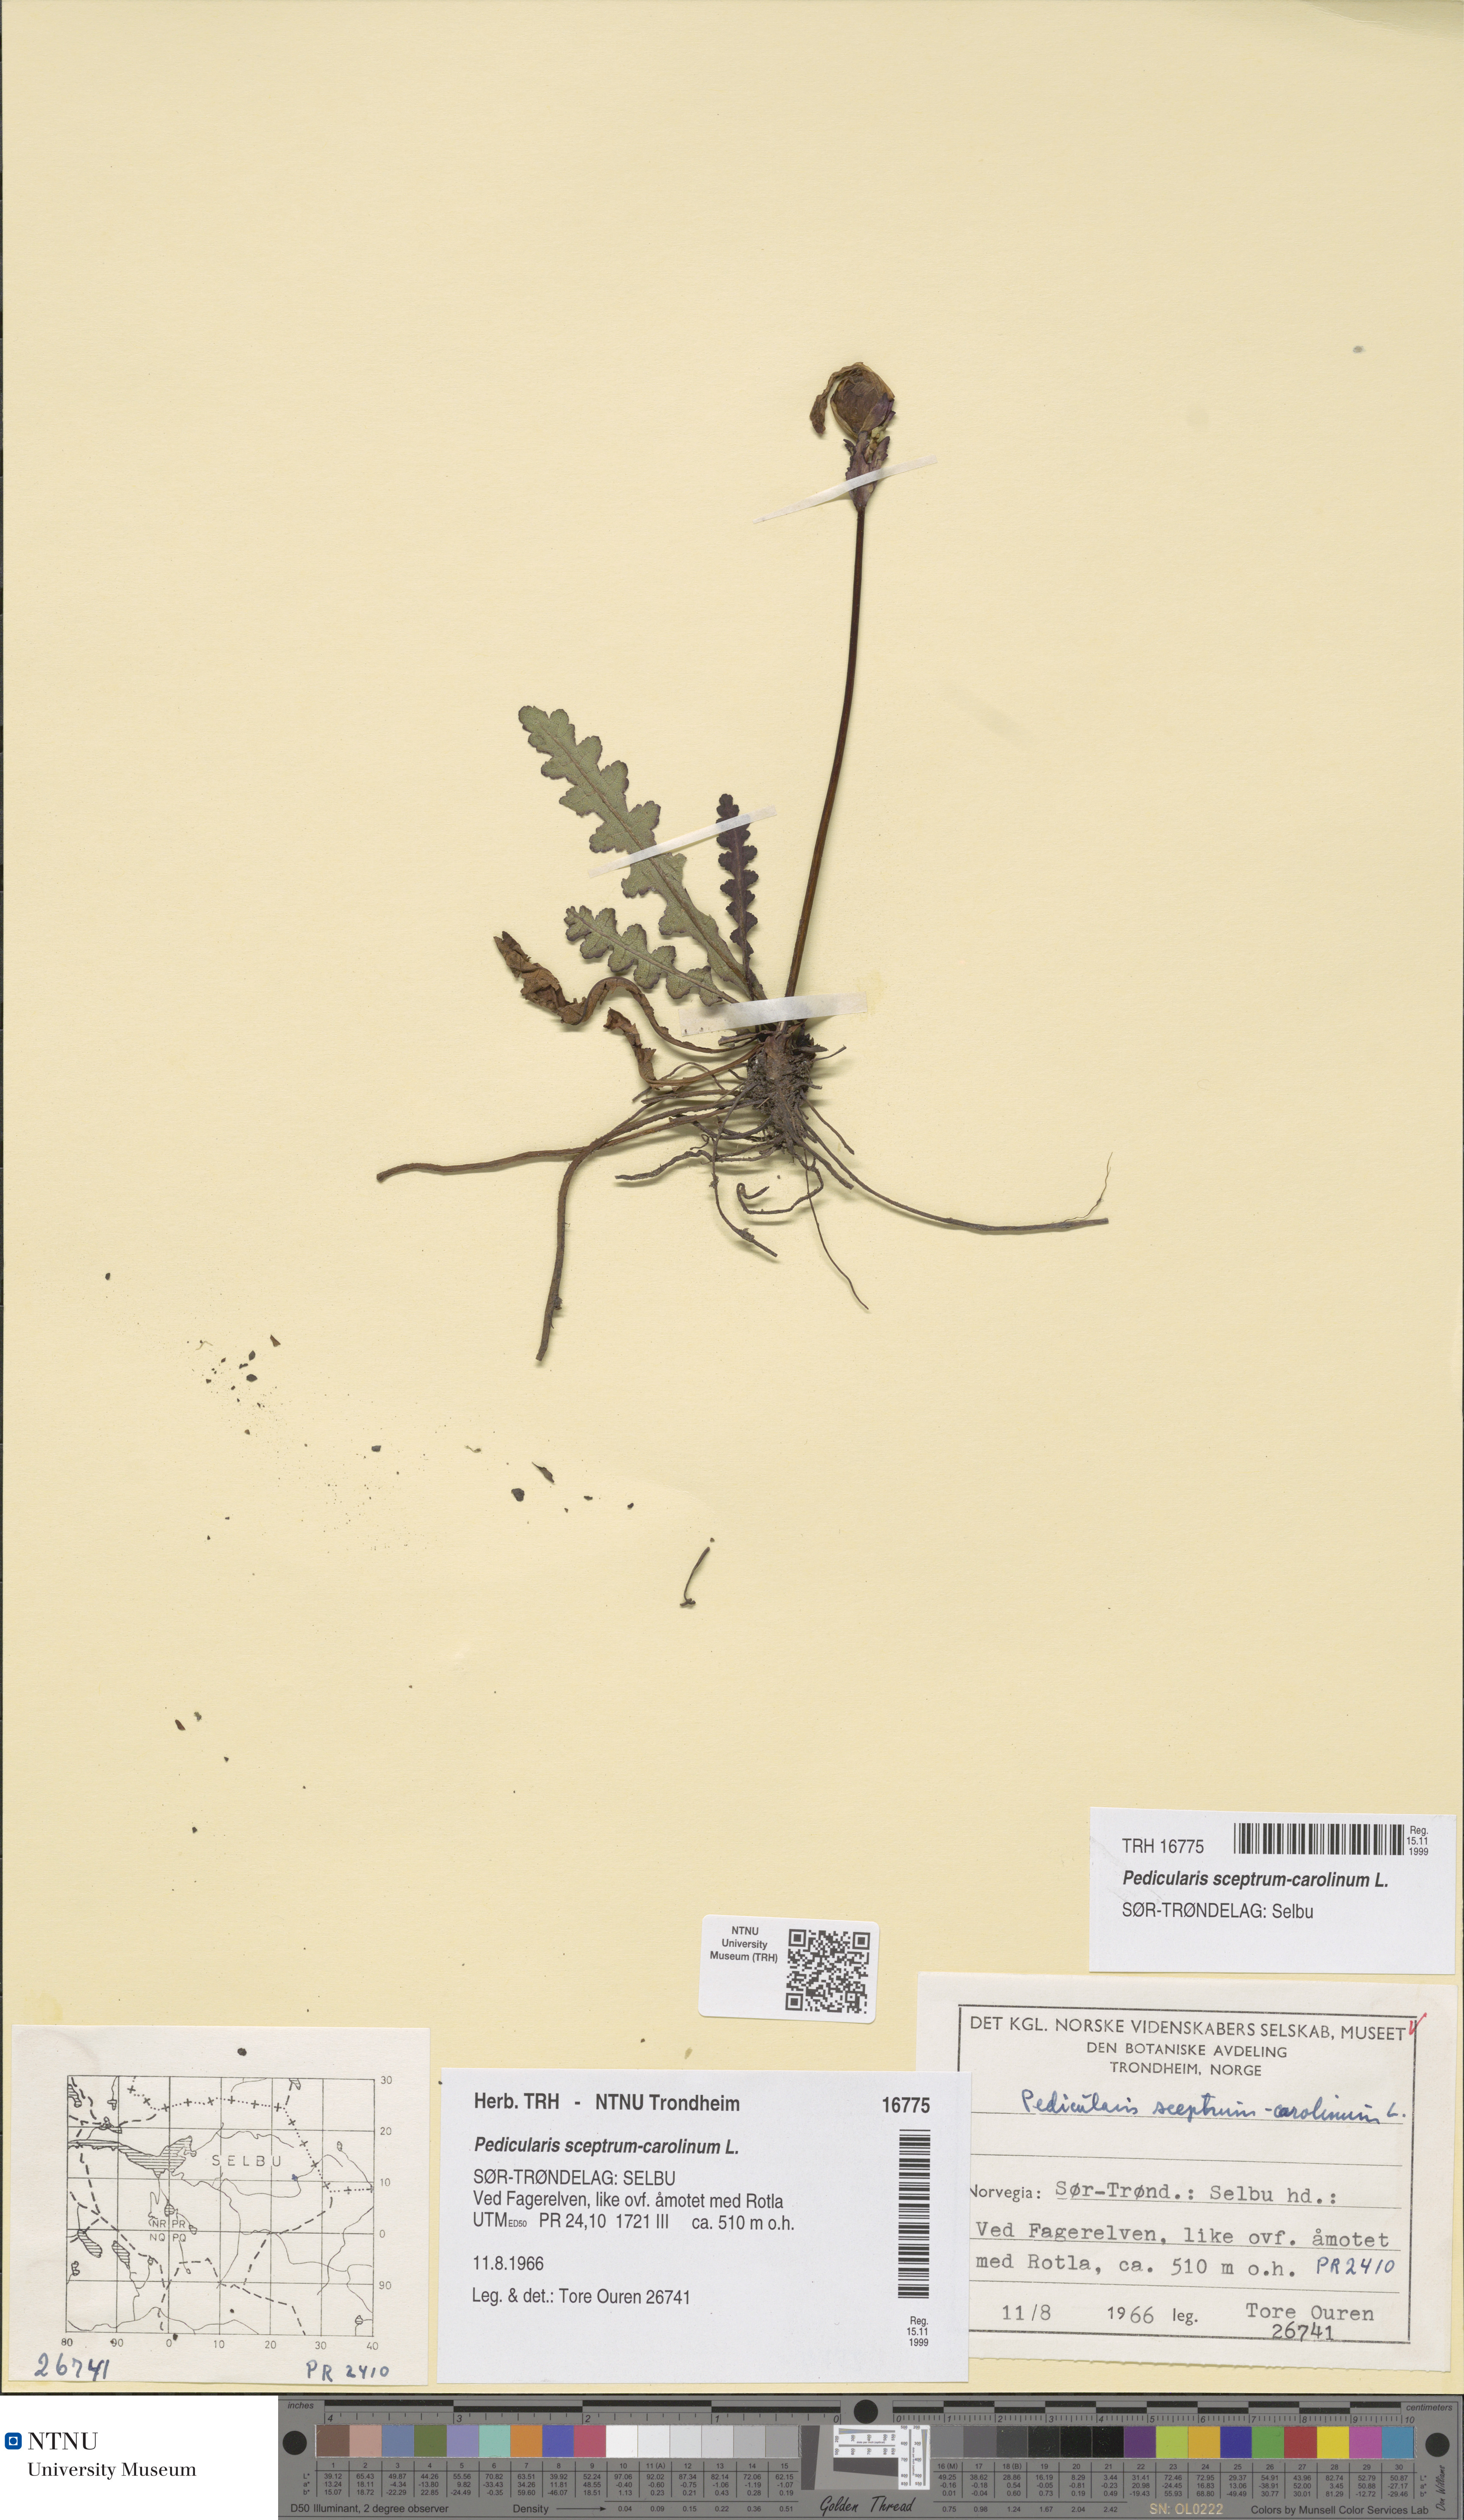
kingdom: Plantae
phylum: Tracheophyta
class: Magnoliopsida
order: Lamiales
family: Orobanchaceae
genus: Pedicularis
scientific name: Pedicularis sceptrum-carolinum
